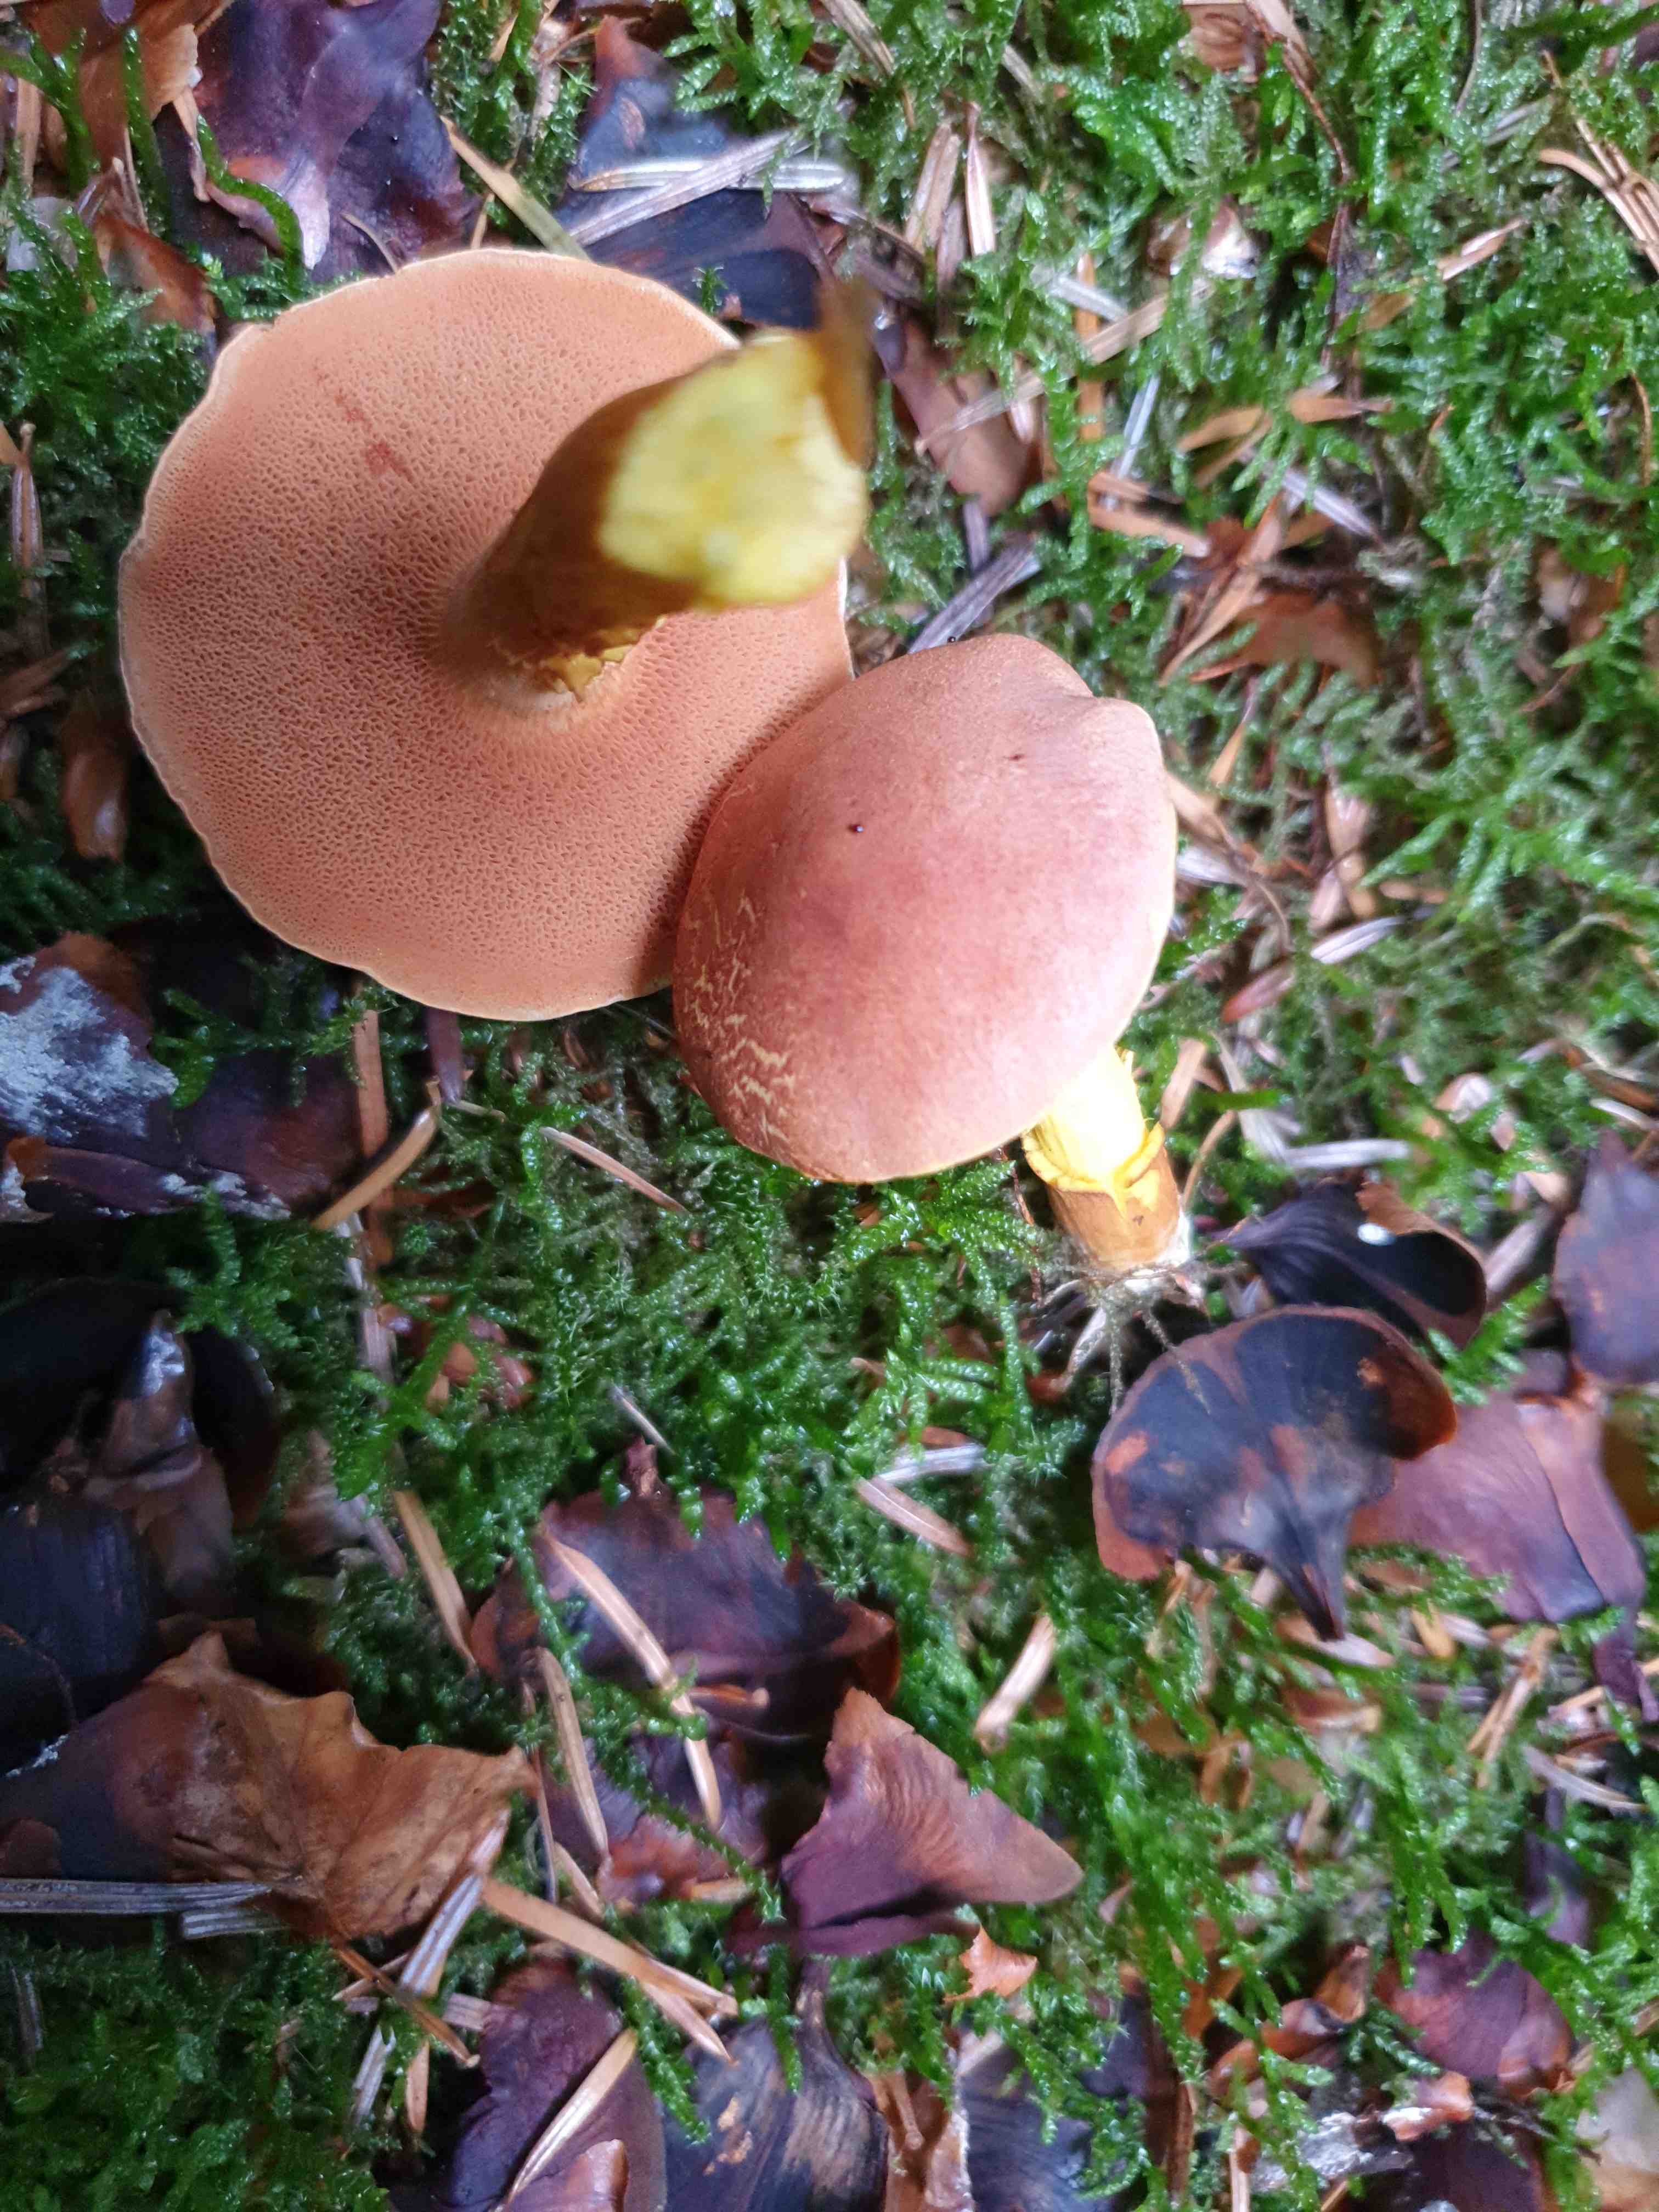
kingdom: Fungi
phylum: Basidiomycota
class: Agaricomycetes
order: Boletales
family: Boletaceae
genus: Chalciporus
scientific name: Chalciporus piperatus
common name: peberrørhat
